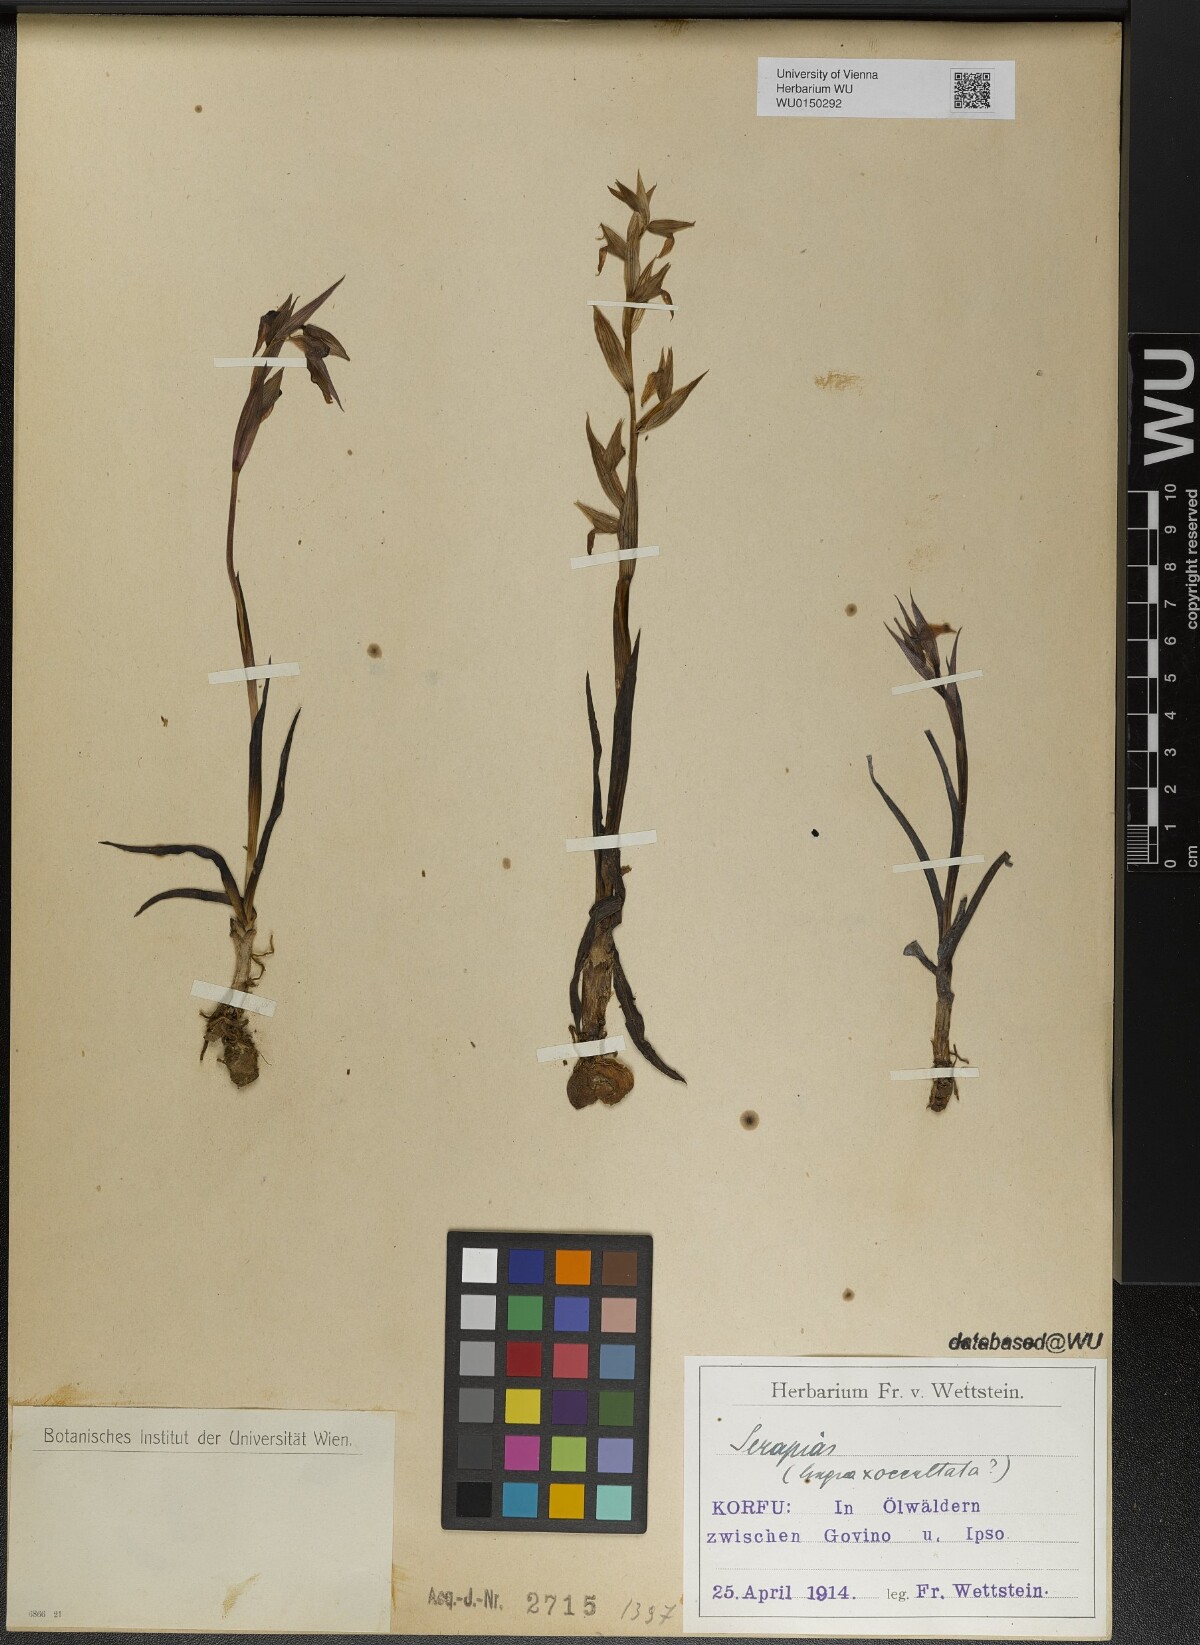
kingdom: Plantae
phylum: Tracheophyta
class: Liliopsida
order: Asparagales
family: Orchidaceae
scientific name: Orchidaceae
